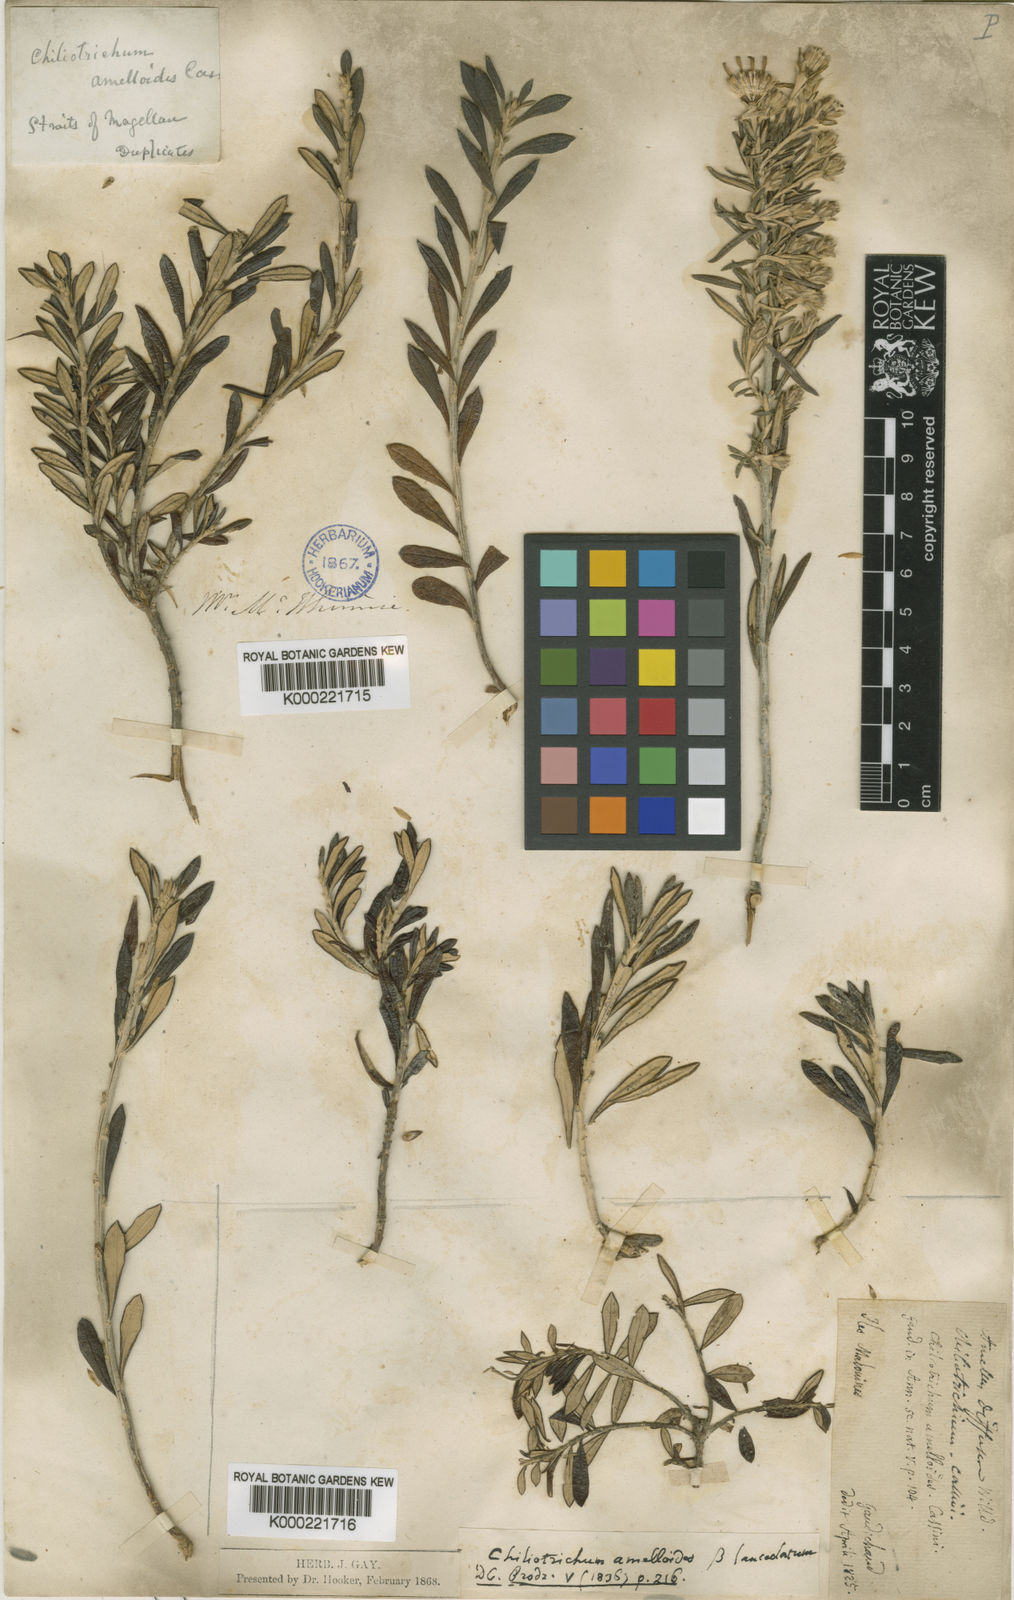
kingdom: Plantae
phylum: Tracheophyta
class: Magnoliopsida
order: Asterales
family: Asteraceae
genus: Chiliotrichum
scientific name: Chiliotrichum diffusum
